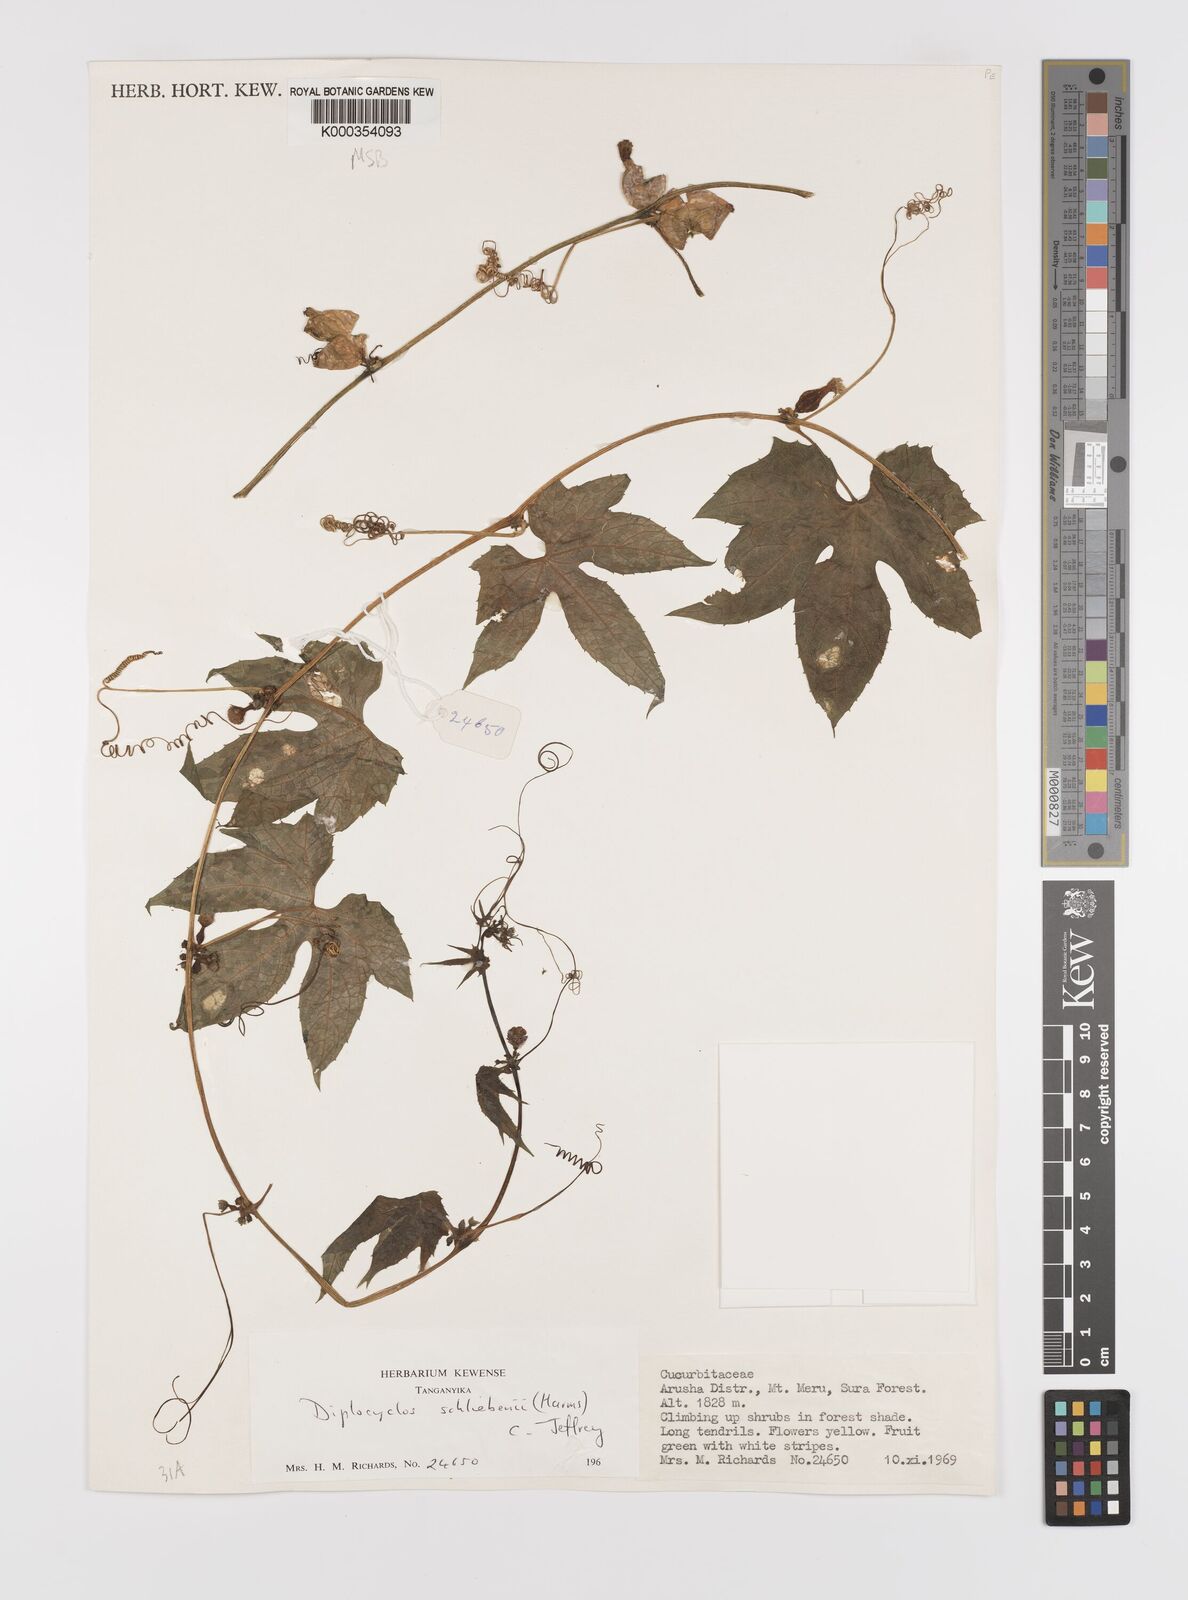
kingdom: Plantae
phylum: Tracheophyta
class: Magnoliopsida
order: Cucurbitales
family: Cucurbitaceae
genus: Diplocyclos
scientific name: Diplocyclos schliebenii
